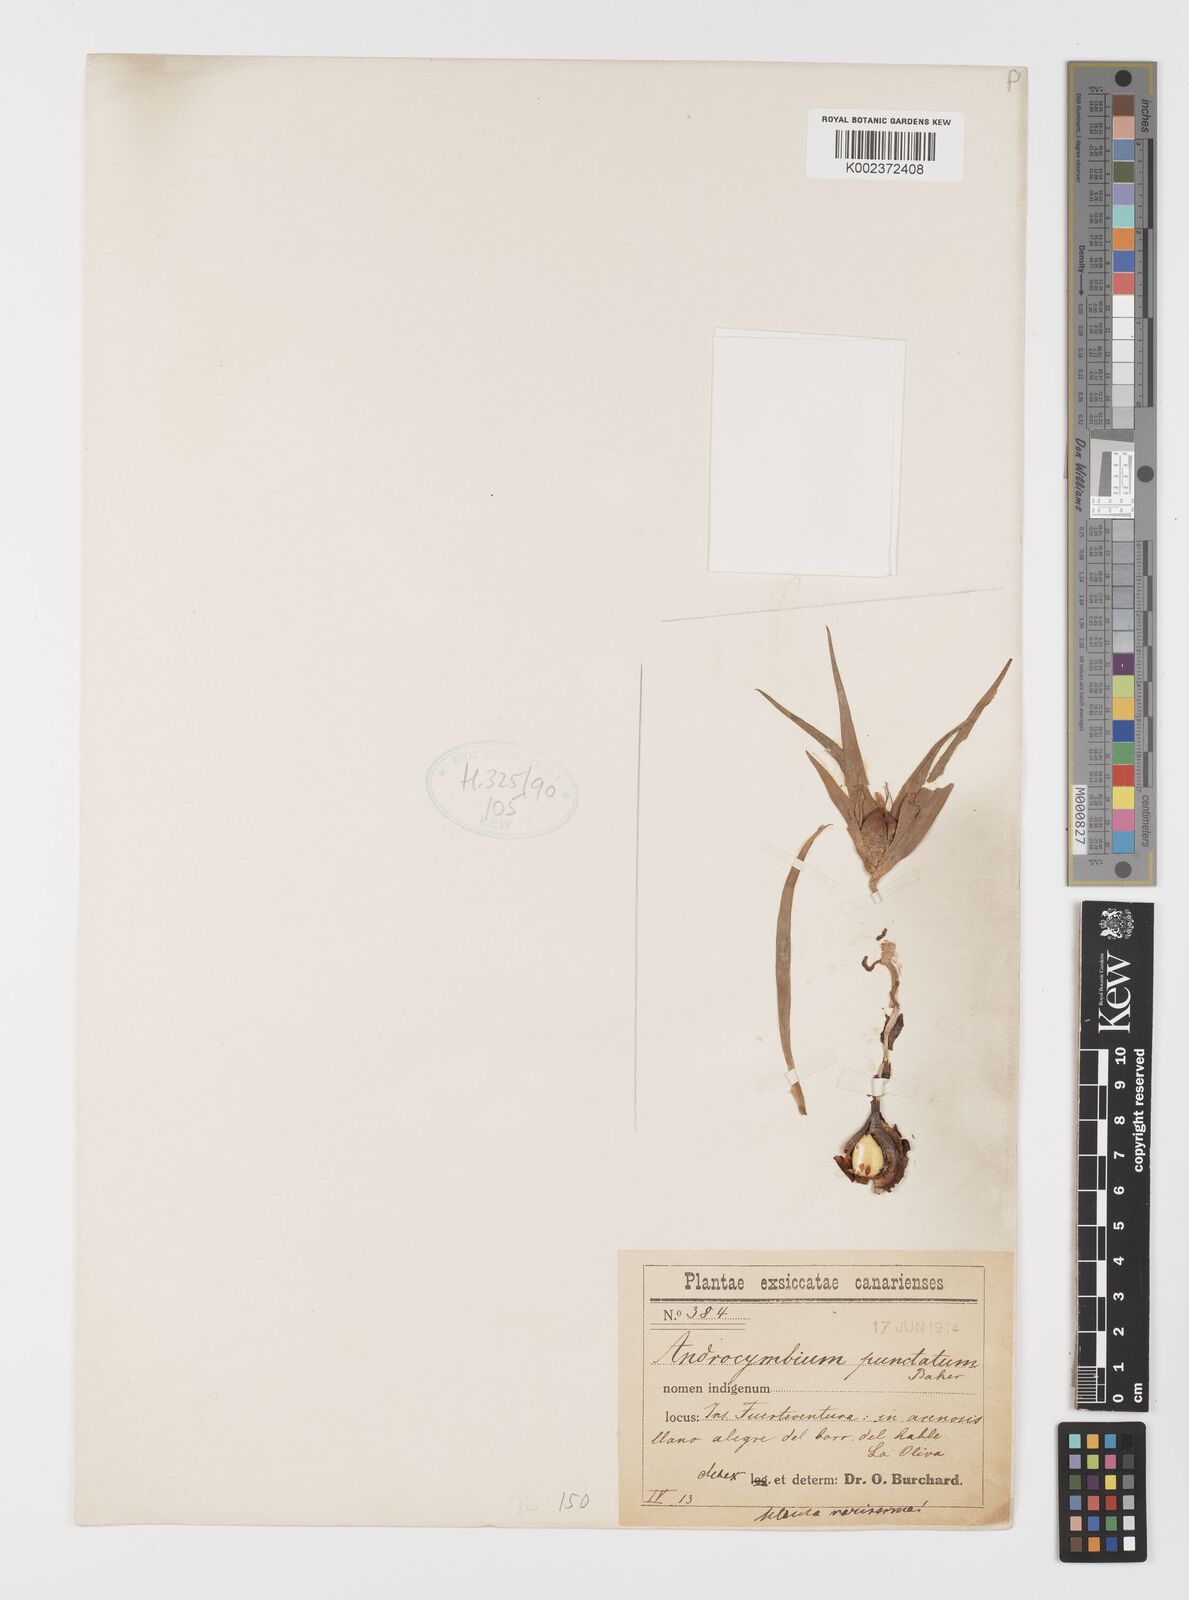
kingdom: Plantae
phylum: Tracheophyta
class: Liliopsida
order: Liliales
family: Colchicaceae
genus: Colchicum
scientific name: Colchicum gramineum
